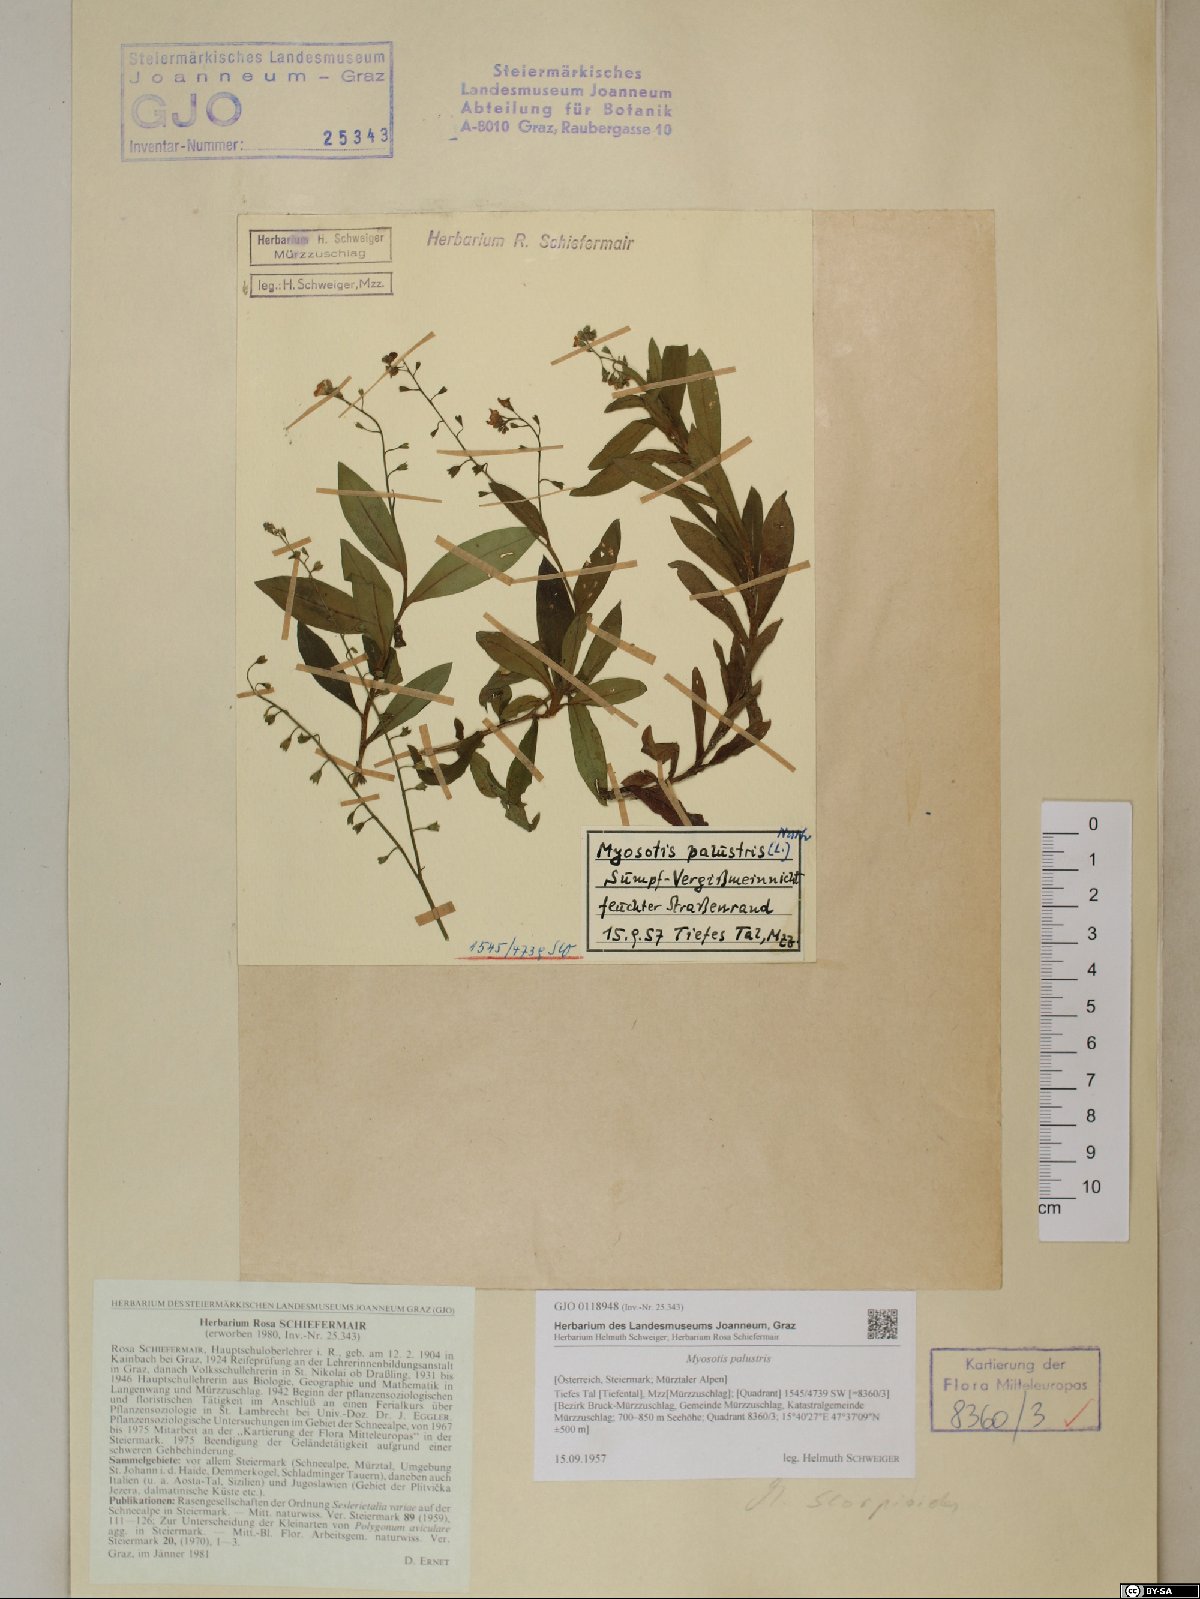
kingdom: Plantae
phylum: Tracheophyta
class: Magnoliopsida
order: Boraginales
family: Boraginaceae
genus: Myosotis
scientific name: Myosotis scorpioides
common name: Water forget-me-not
